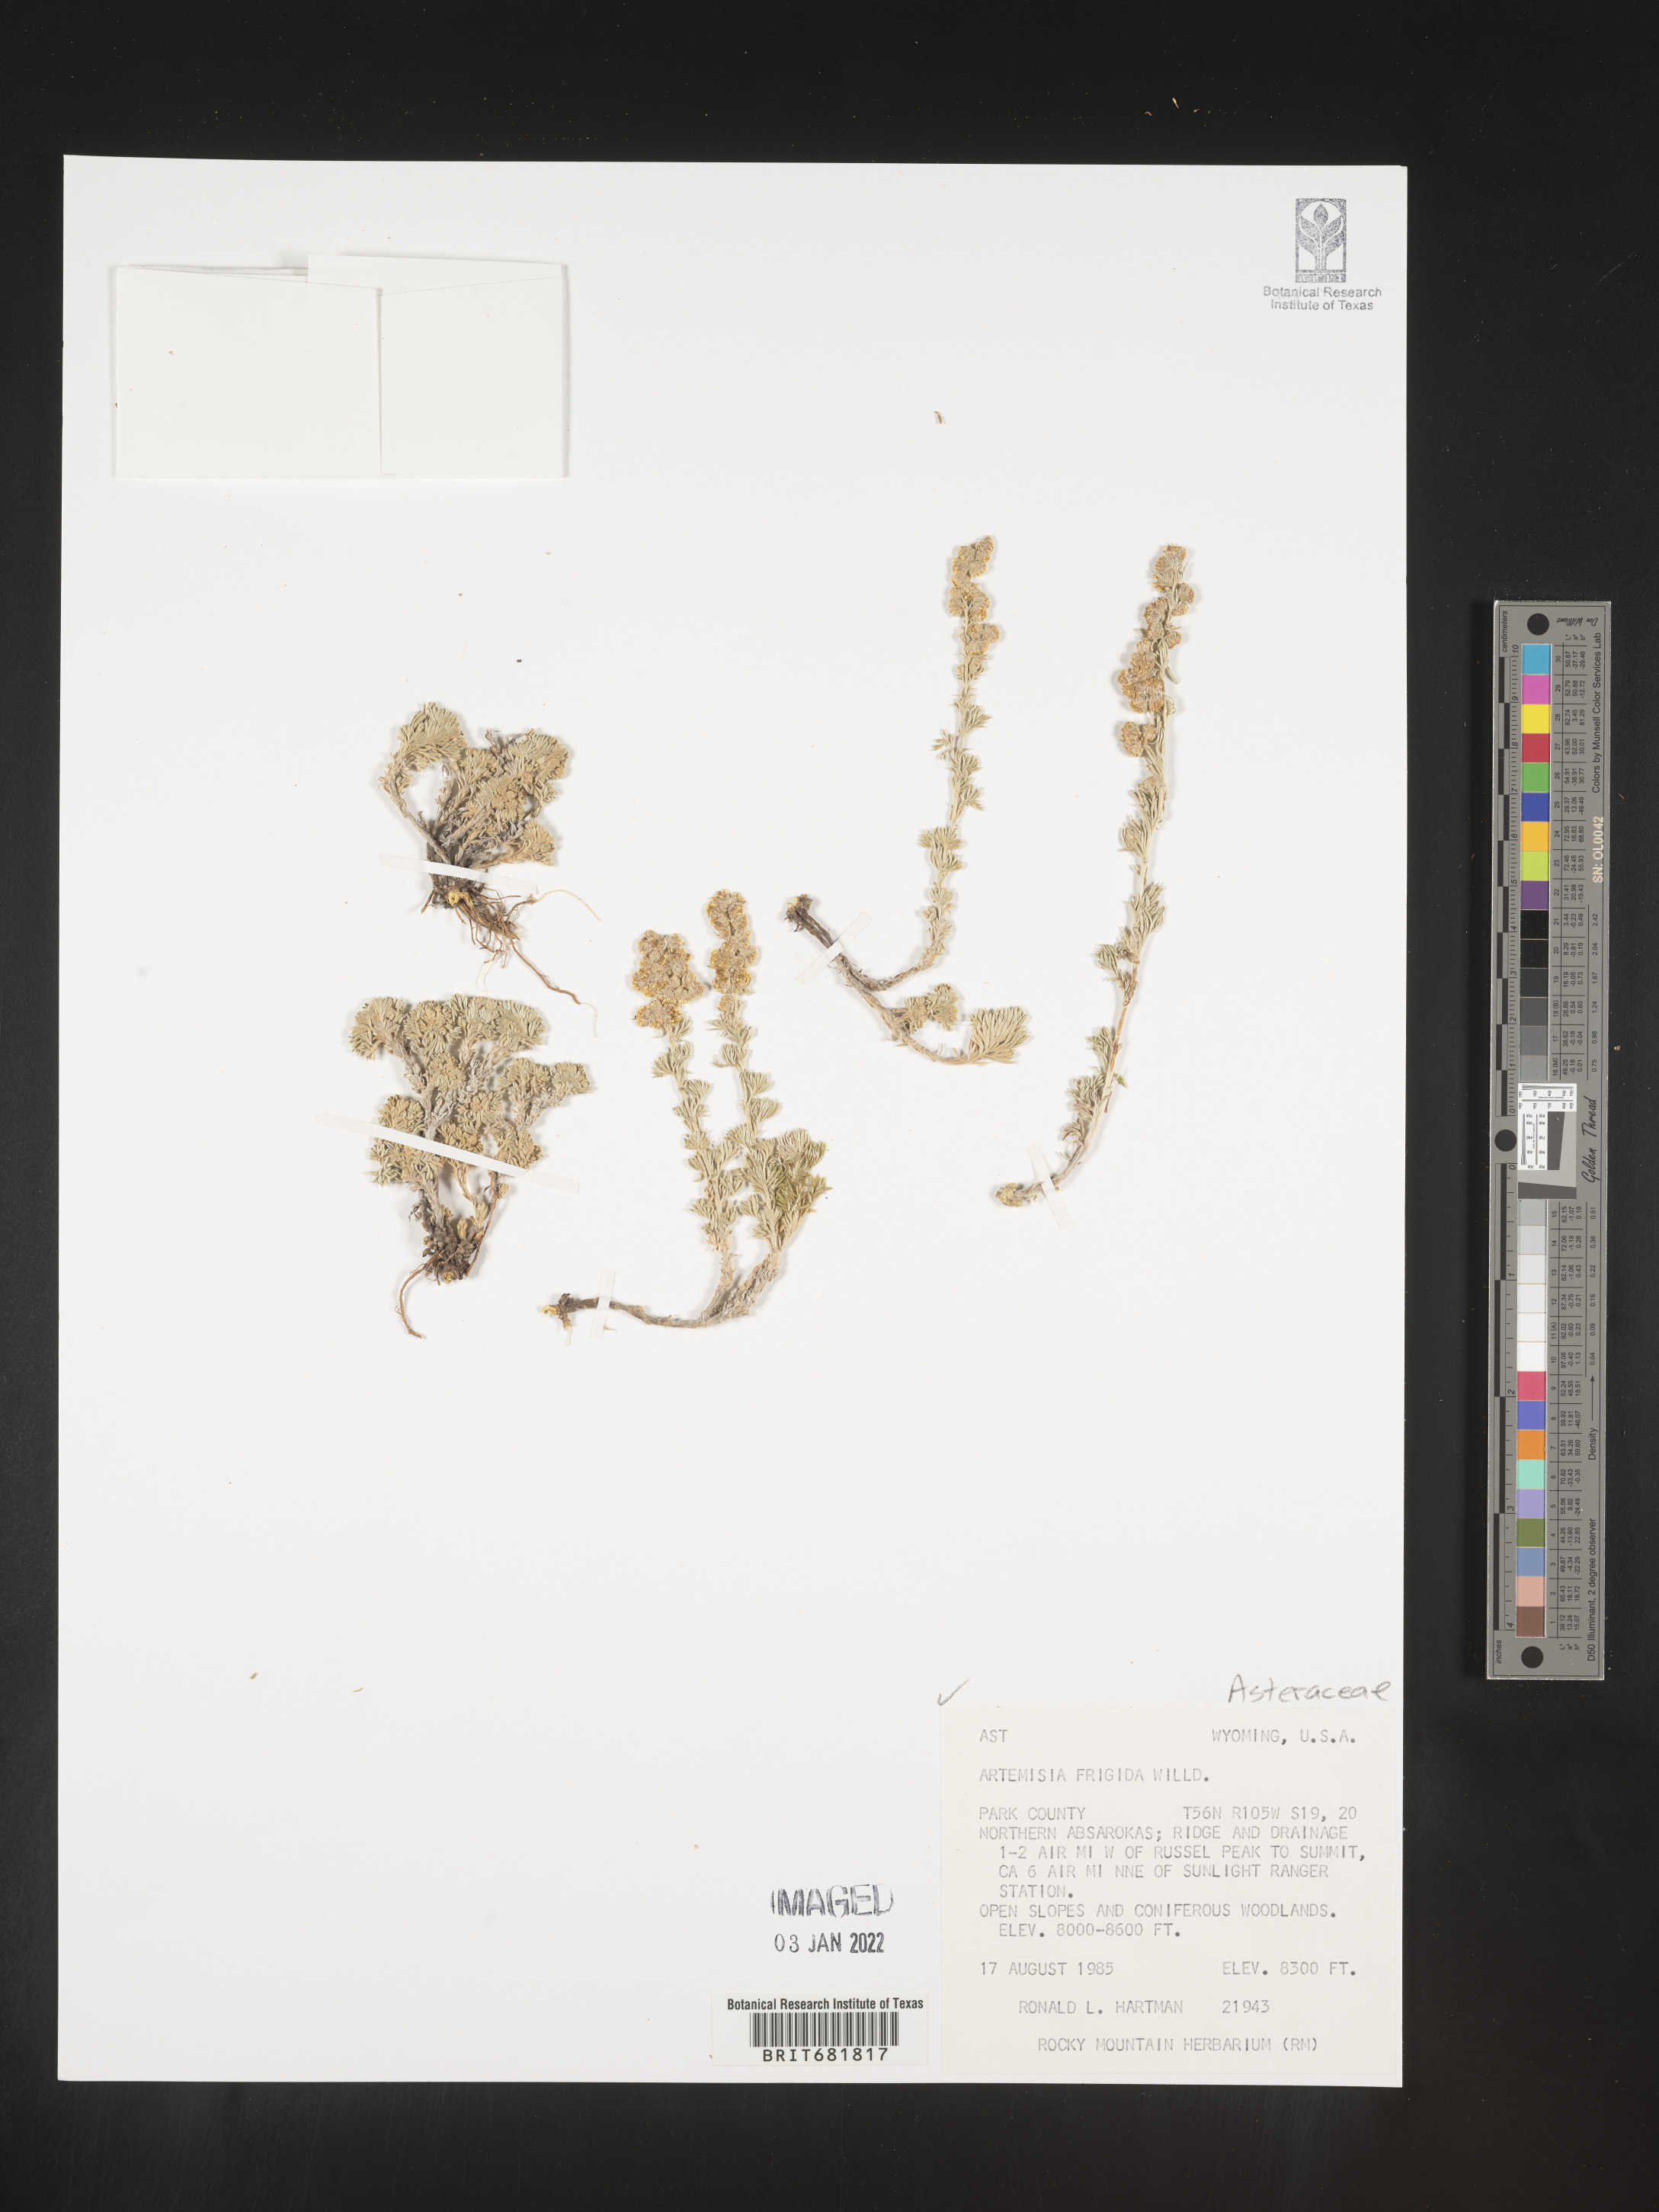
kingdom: Plantae
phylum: Tracheophyta
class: Magnoliopsida
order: Asterales
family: Asteraceae
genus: Artemisia
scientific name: Artemisia frigida
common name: Prairie sagewort
